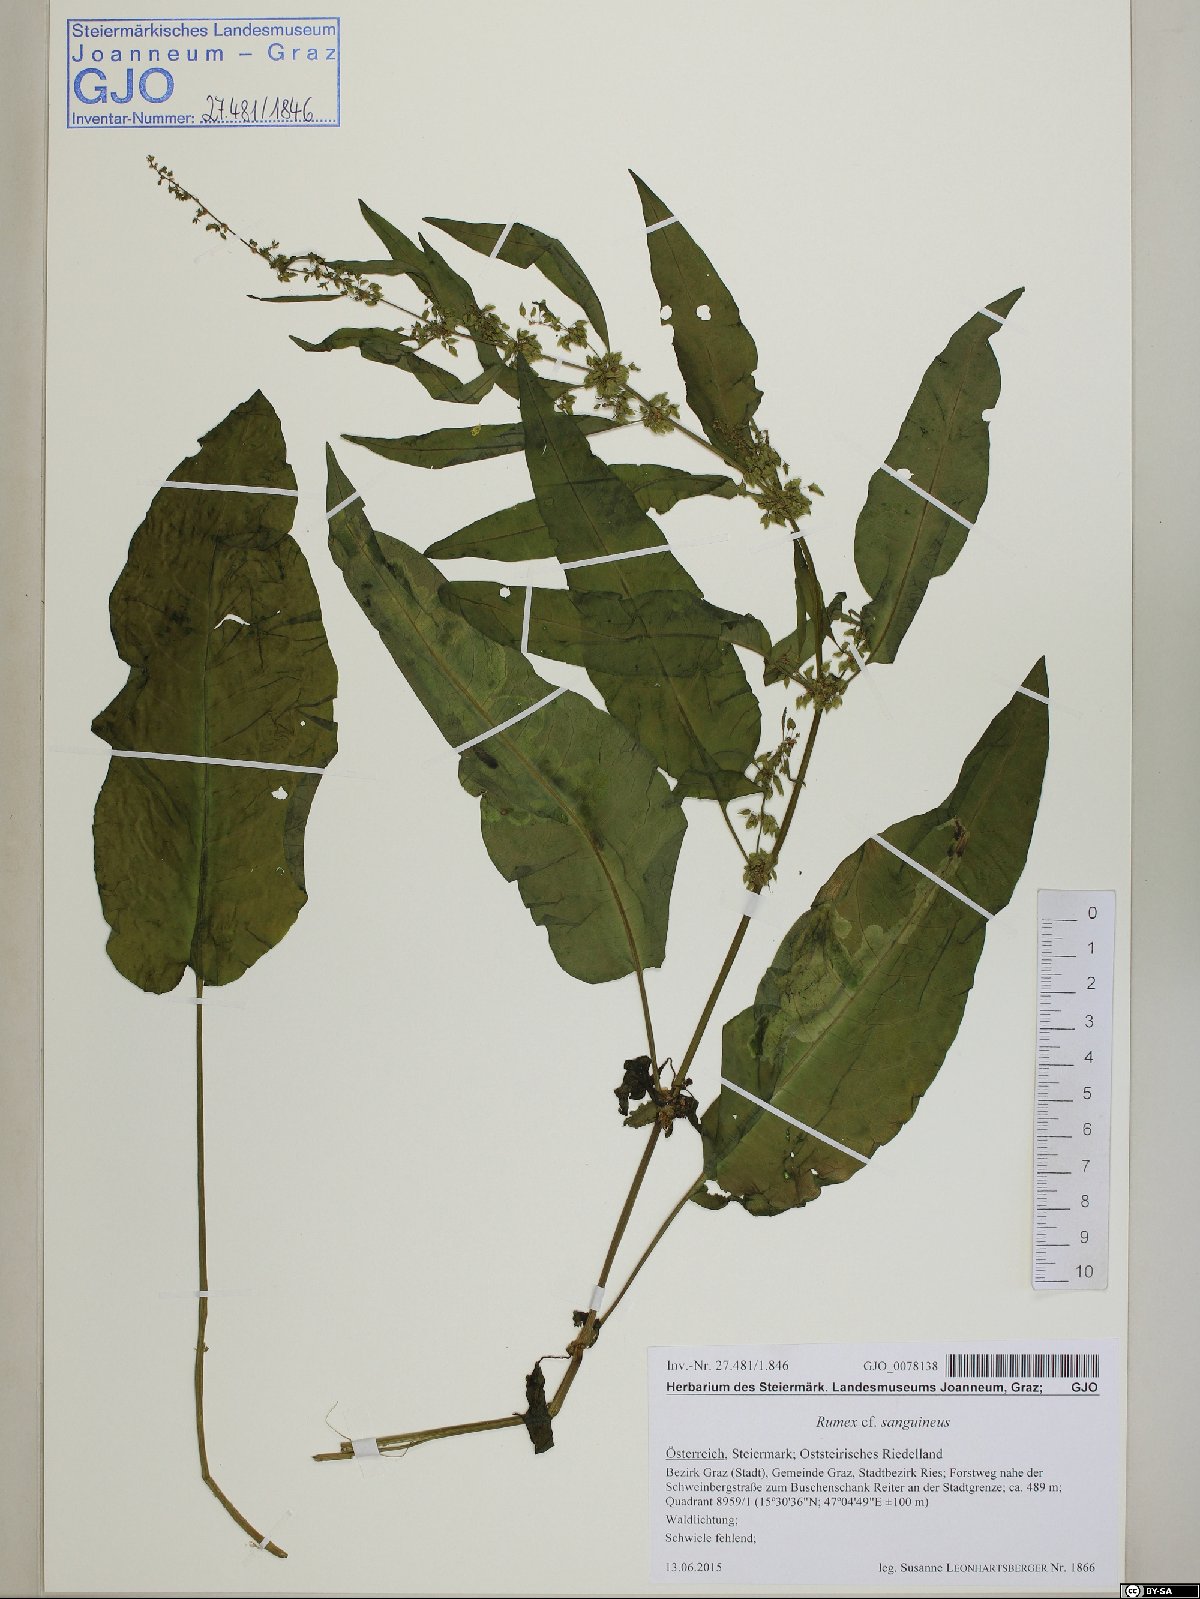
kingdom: Plantae
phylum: Tracheophyta
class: Magnoliopsida
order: Caryophyllales
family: Polygonaceae
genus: Rumex
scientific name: Rumex sanguineus
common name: Wood dock
